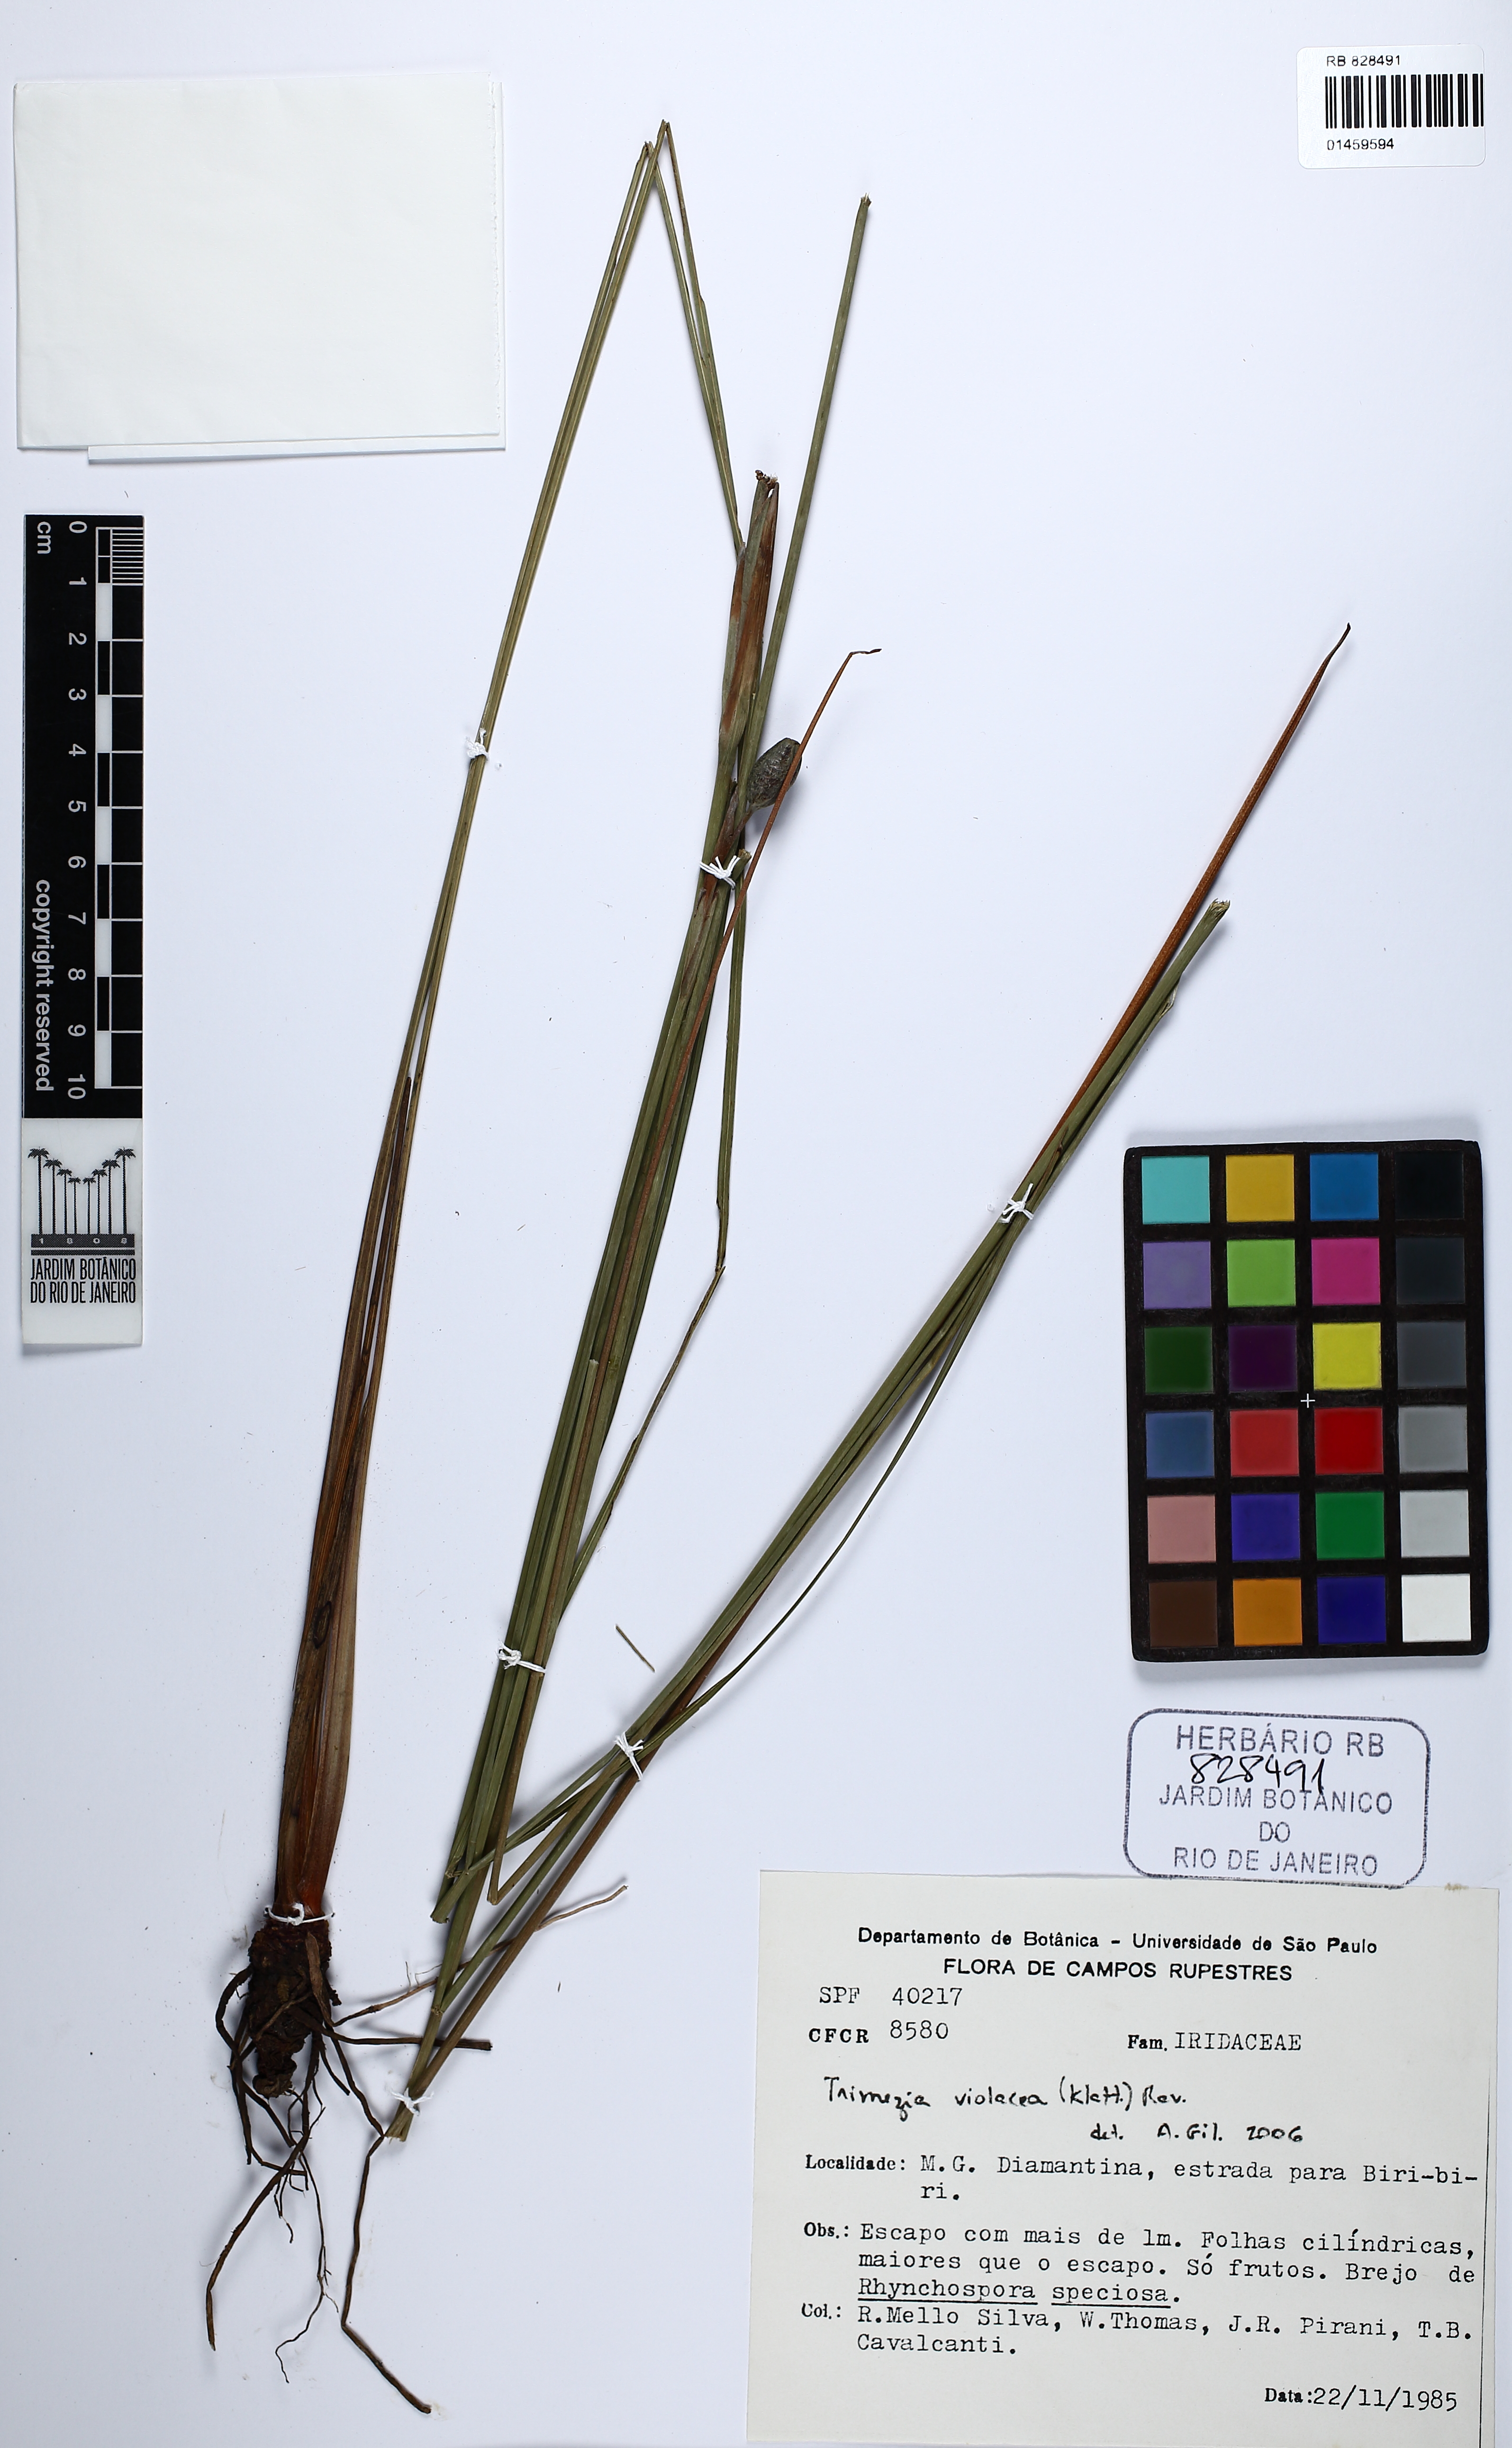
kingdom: Plantae
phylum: Tracheophyta
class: Liliopsida
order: Asparagales
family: Iridaceae
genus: Trimezia
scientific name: Trimezia violacea
